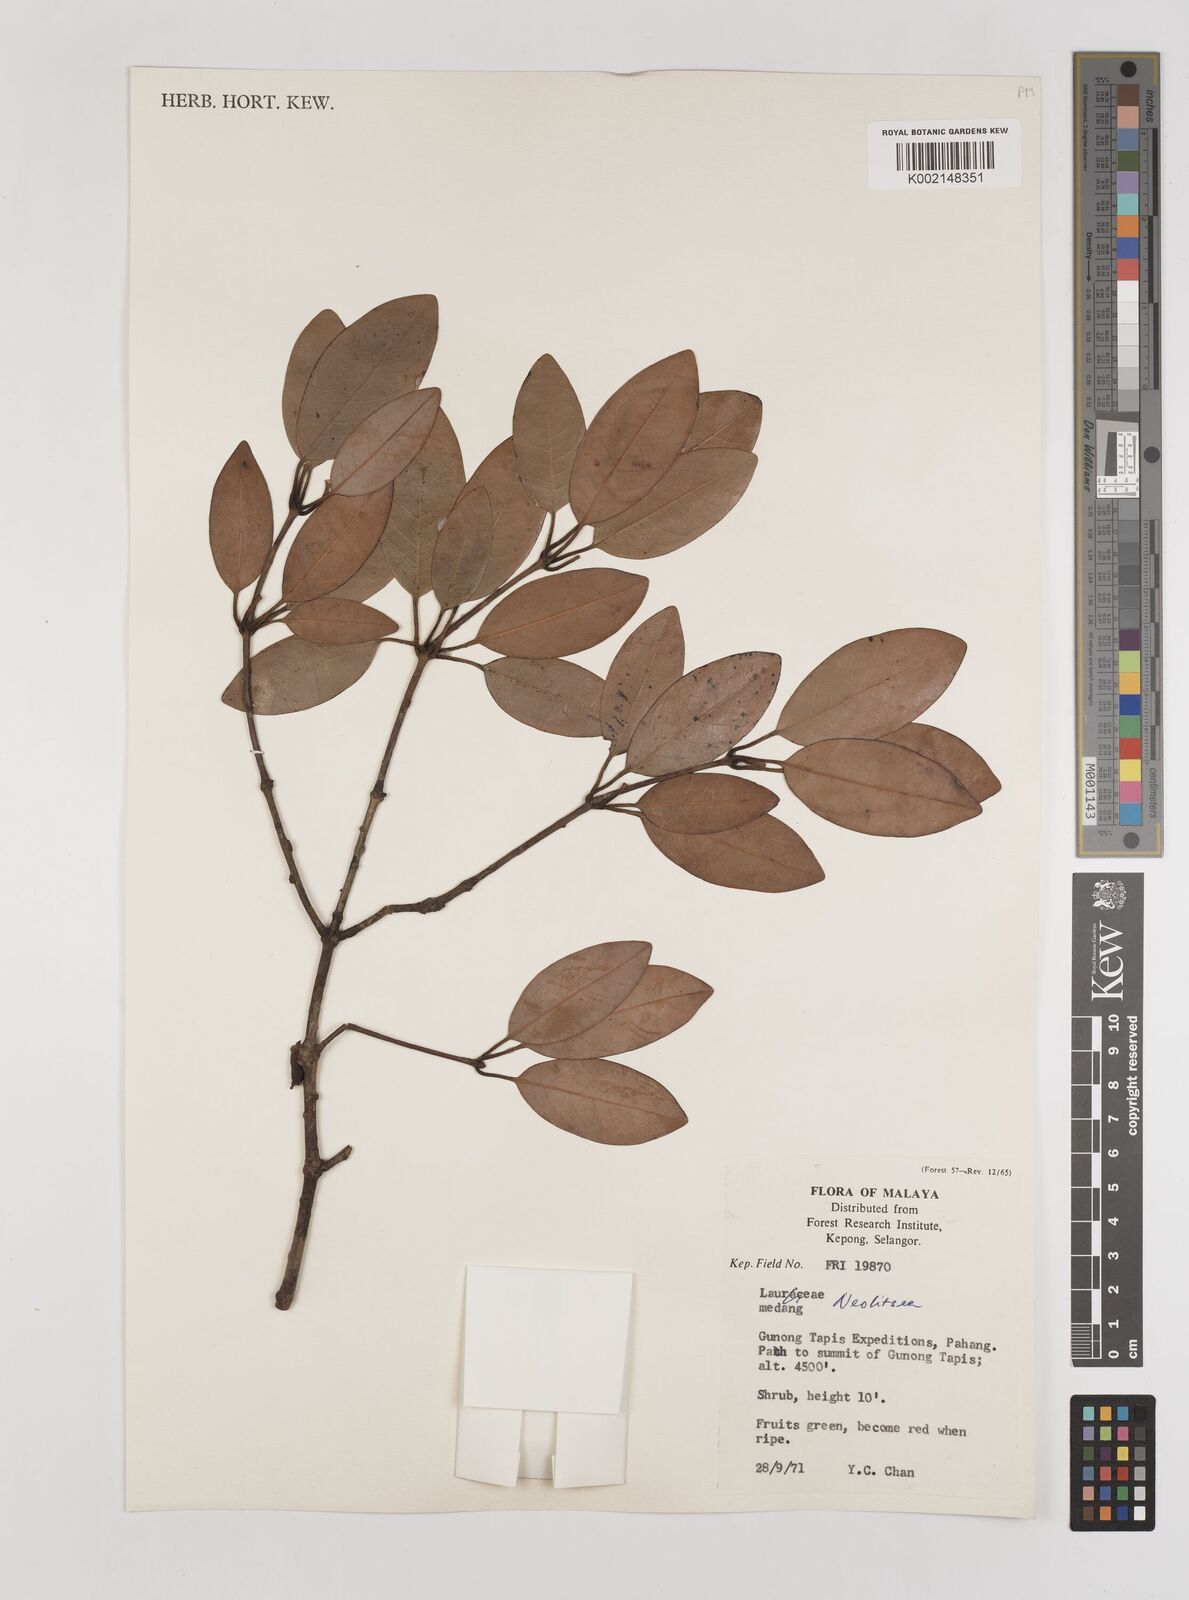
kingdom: Plantae
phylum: Tracheophyta
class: Magnoliopsida
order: Laurales
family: Lauraceae
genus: Neolitsea
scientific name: Neolitsea
